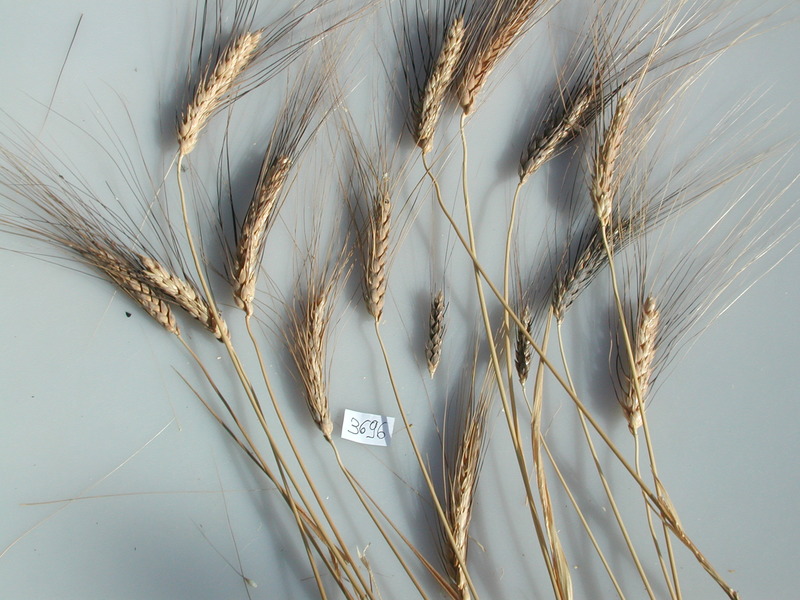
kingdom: Plantae
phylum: Tracheophyta
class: Liliopsida
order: Poales
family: Poaceae
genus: Sorghum
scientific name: Sorghum bicolor
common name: Wheat
